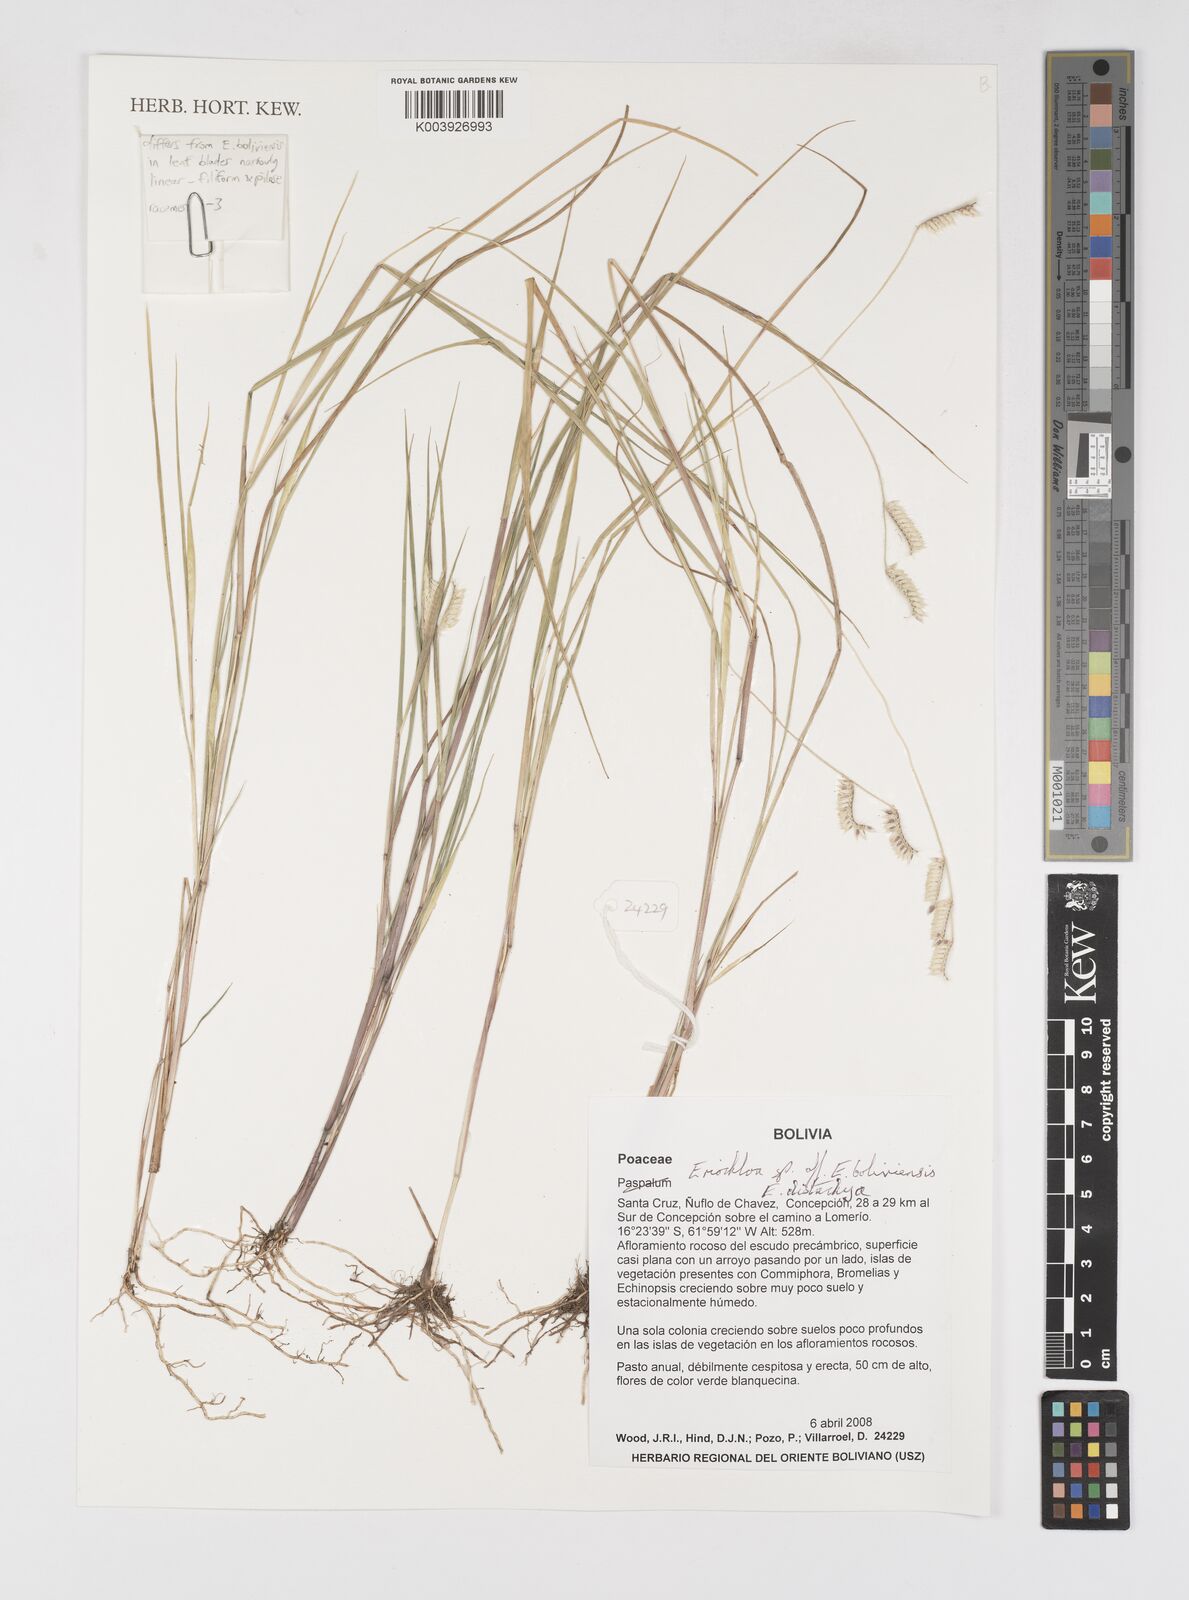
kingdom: Plantae
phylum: Tracheophyta
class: Liliopsida
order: Poales
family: Poaceae
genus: Eriochloa
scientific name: Eriochloa distachya
